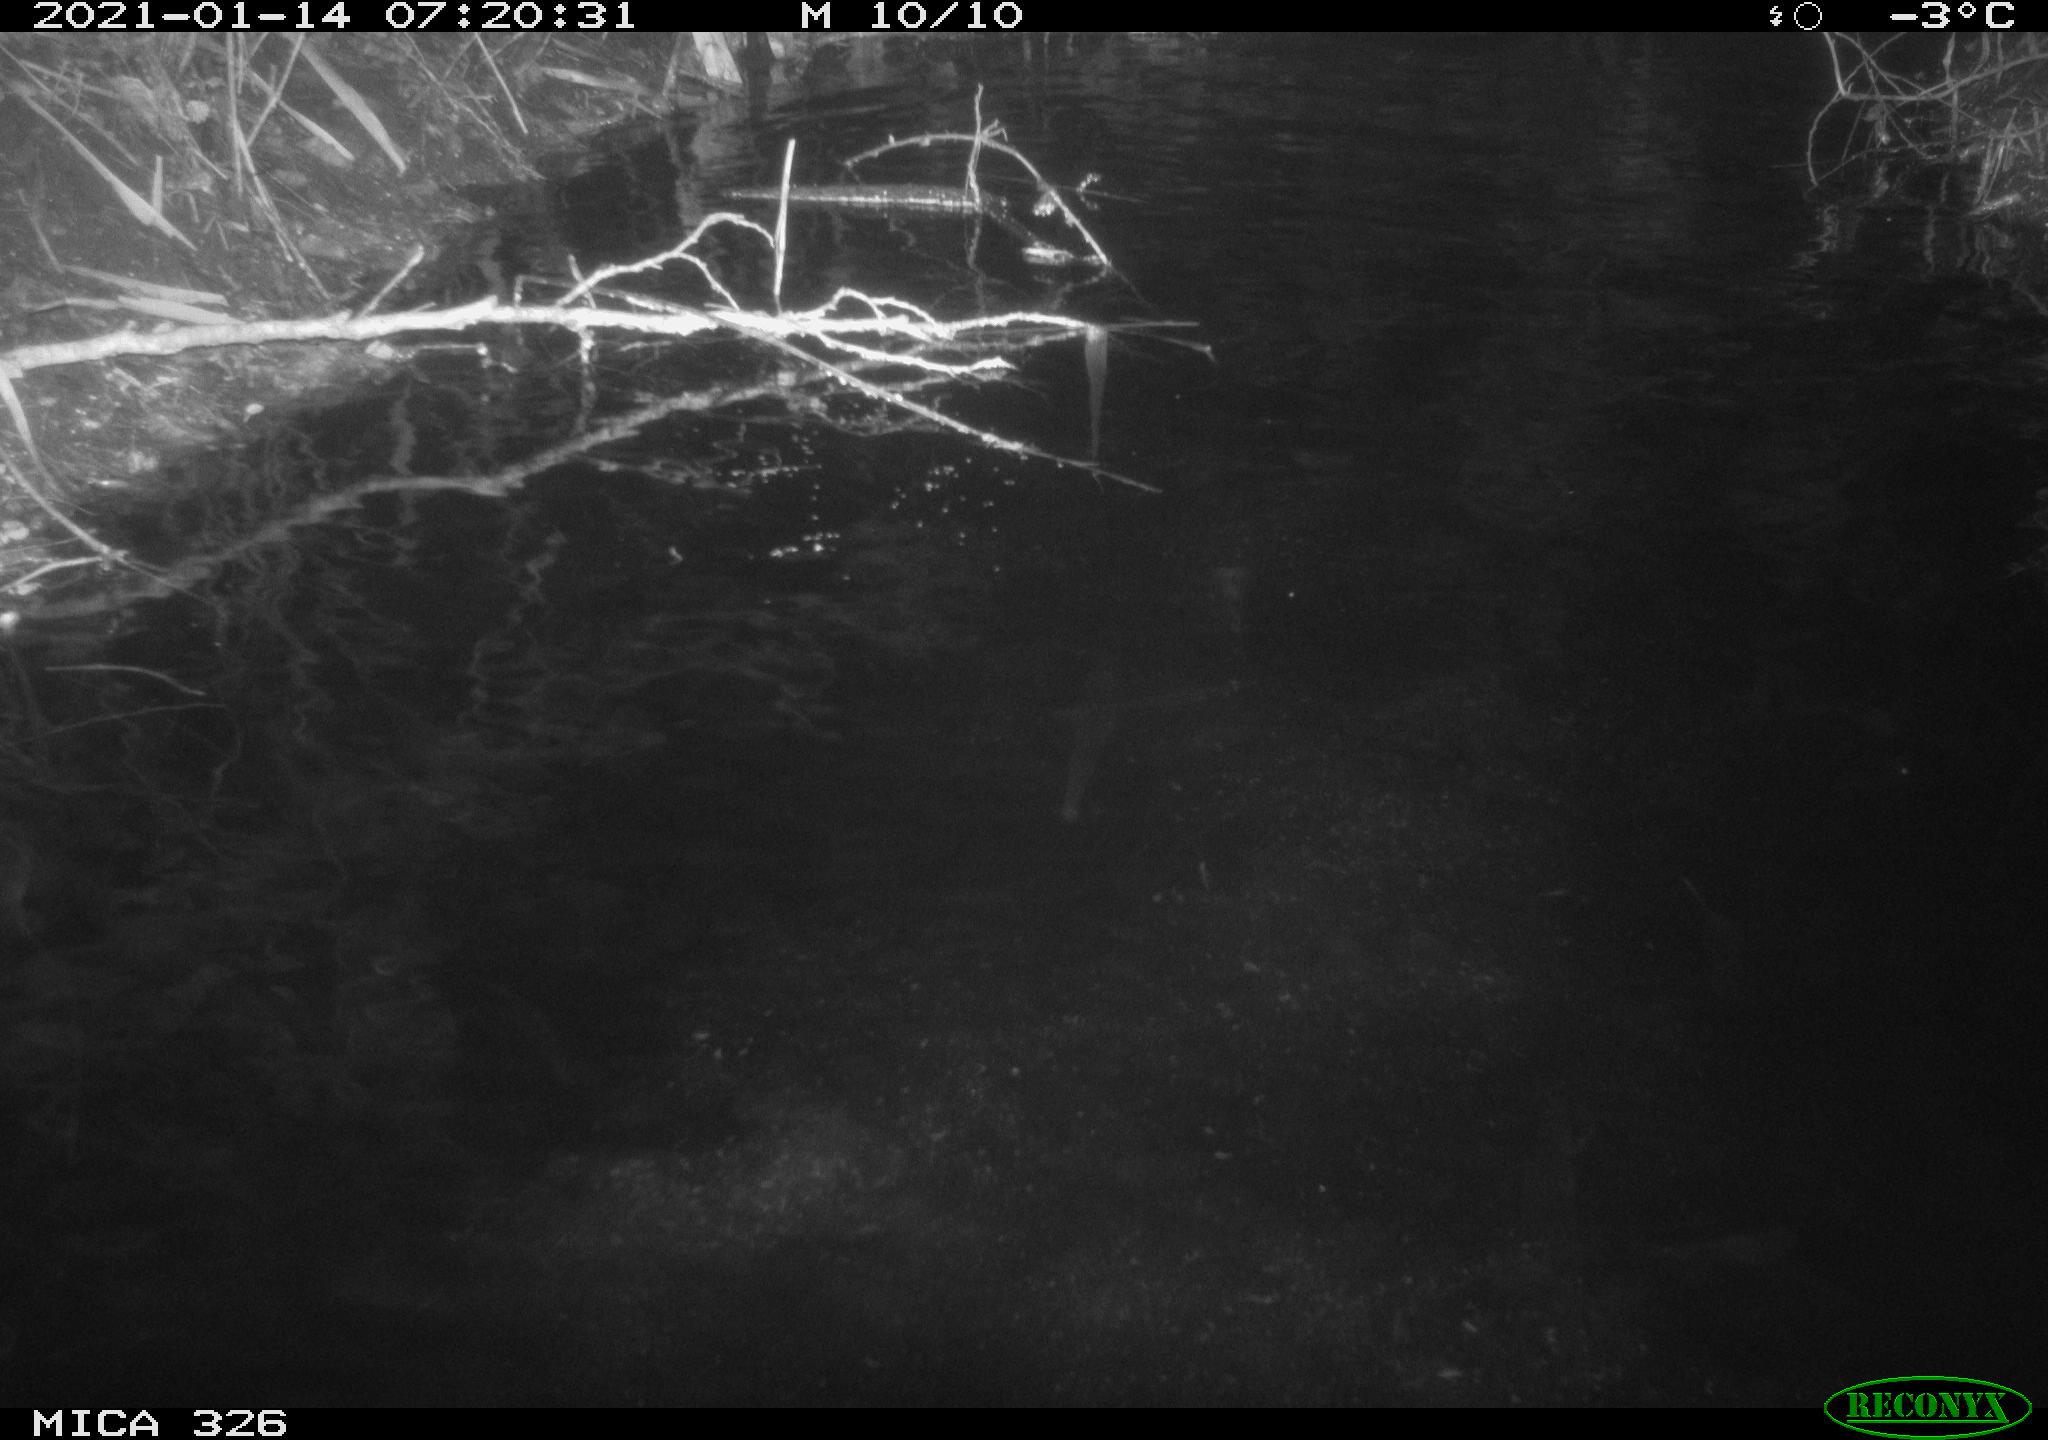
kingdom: Animalia
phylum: Chordata
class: Mammalia
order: Rodentia
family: Myocastoridae
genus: Myocastor
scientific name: Myocastor coypus
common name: Coypu
